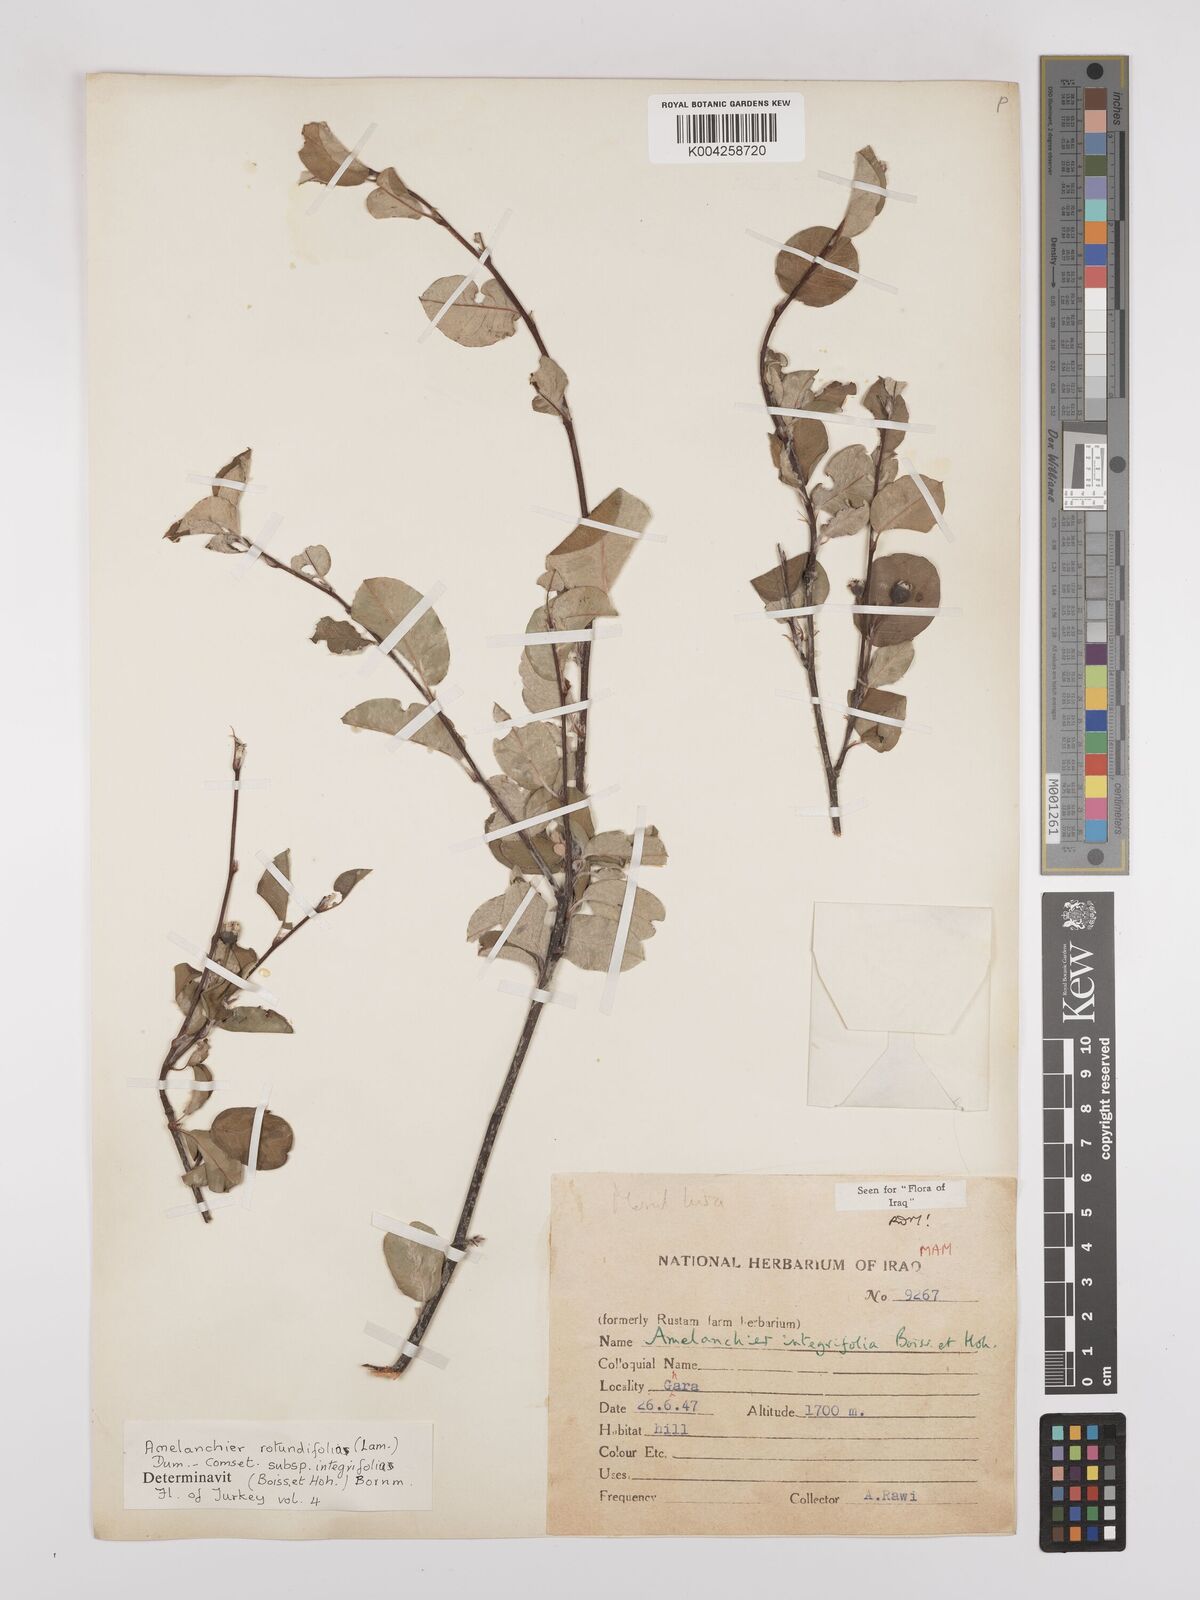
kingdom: Plantae
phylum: Tracheophyta
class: Magnoliopsida
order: Rosales
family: Rosaceae
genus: Amelanchier
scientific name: Amelanchier ovalis
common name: Serviceberry
